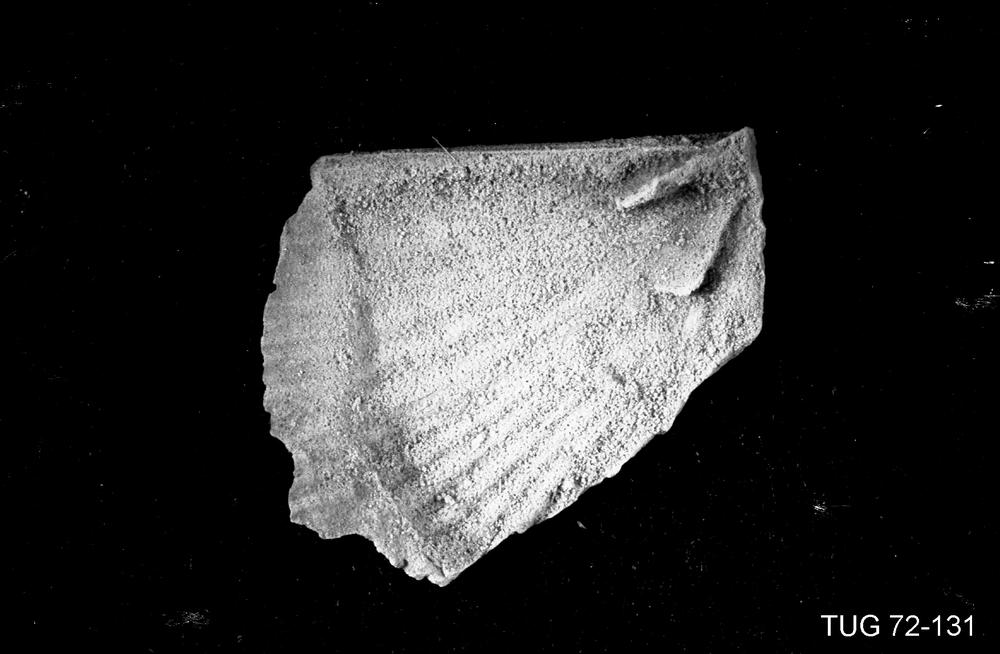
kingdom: Animalia
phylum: Brachiopoda
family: Strophomenidae
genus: Holtedahlina
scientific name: Holtedahlina subtilis
